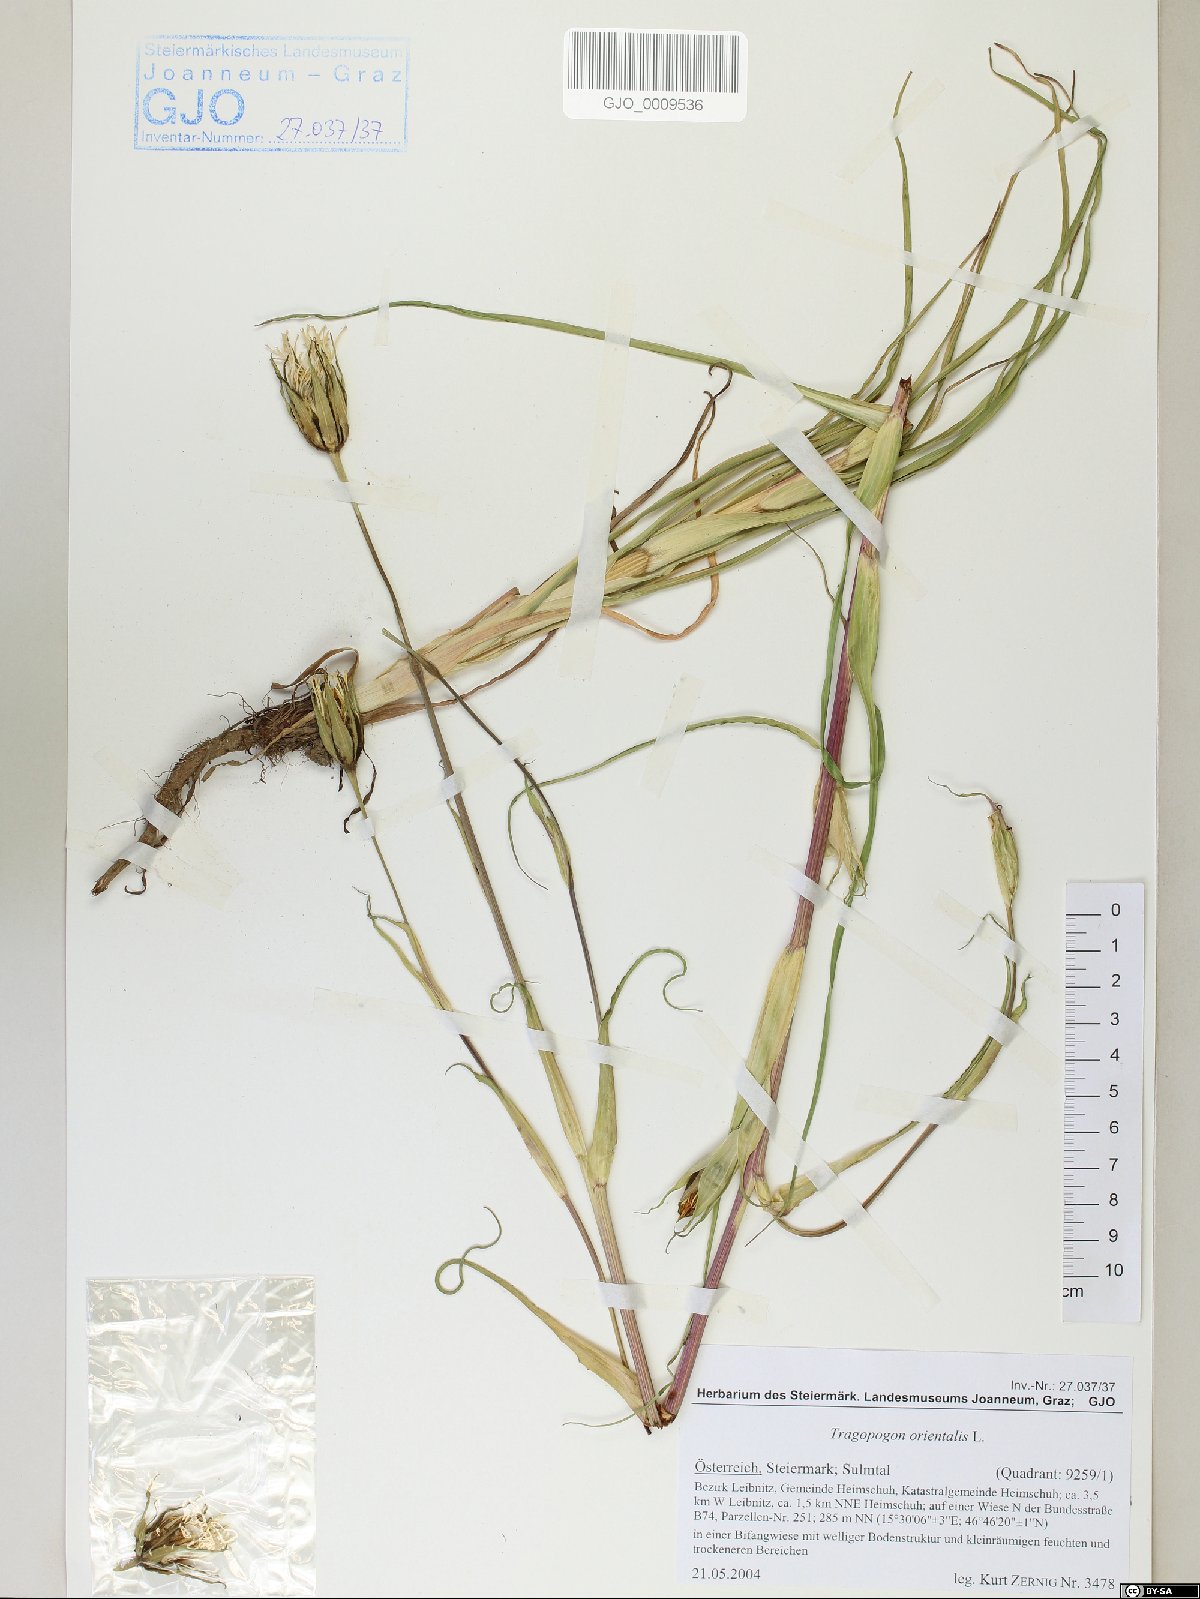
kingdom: Plantae
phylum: Tracheophyta
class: Magnoliopsida
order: Asterales
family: Asteraceae
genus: Tragopogon
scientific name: Tragopogon orientalis
